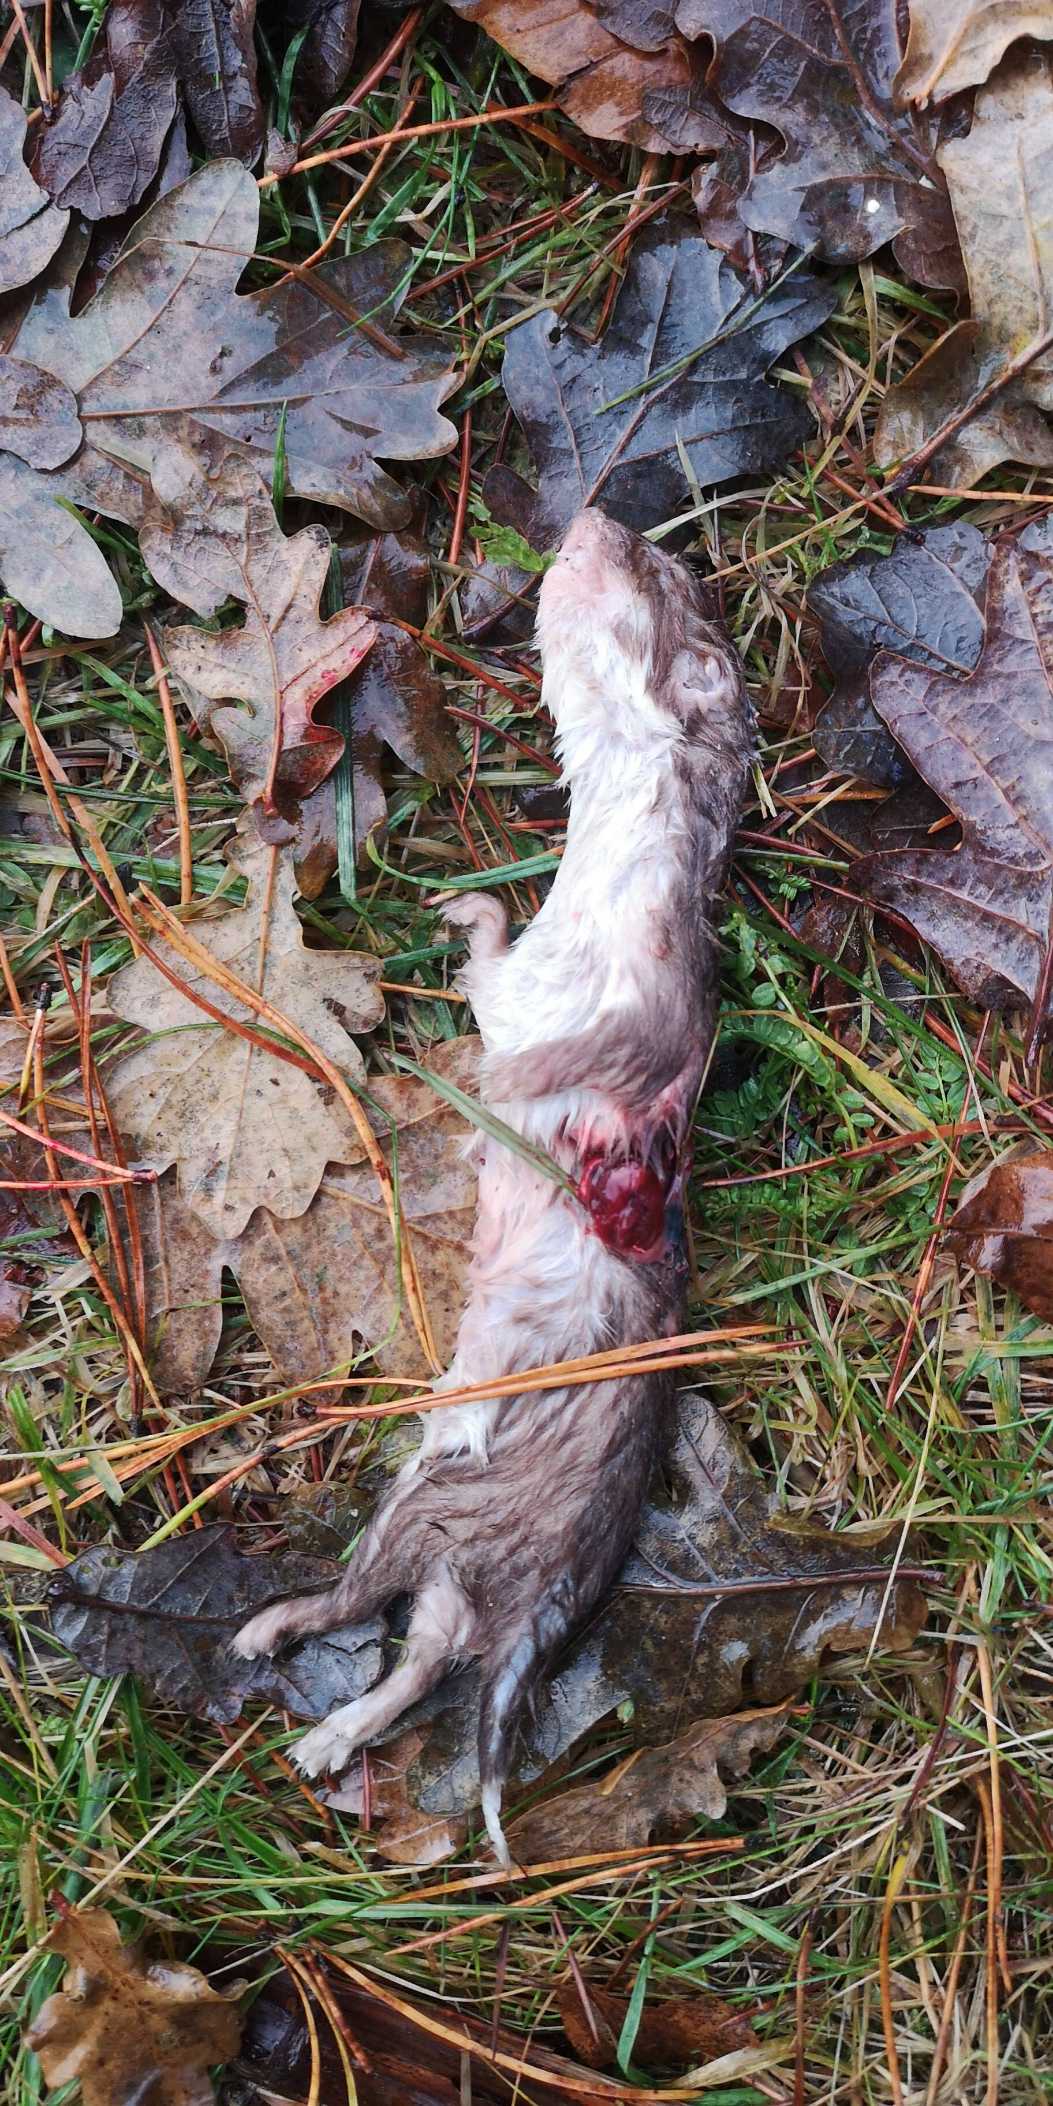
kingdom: Animalia
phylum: Chordata
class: Mammalia
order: Carnivora
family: Mustelidae
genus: Mustela
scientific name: Mustela nivalis
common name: Brud
